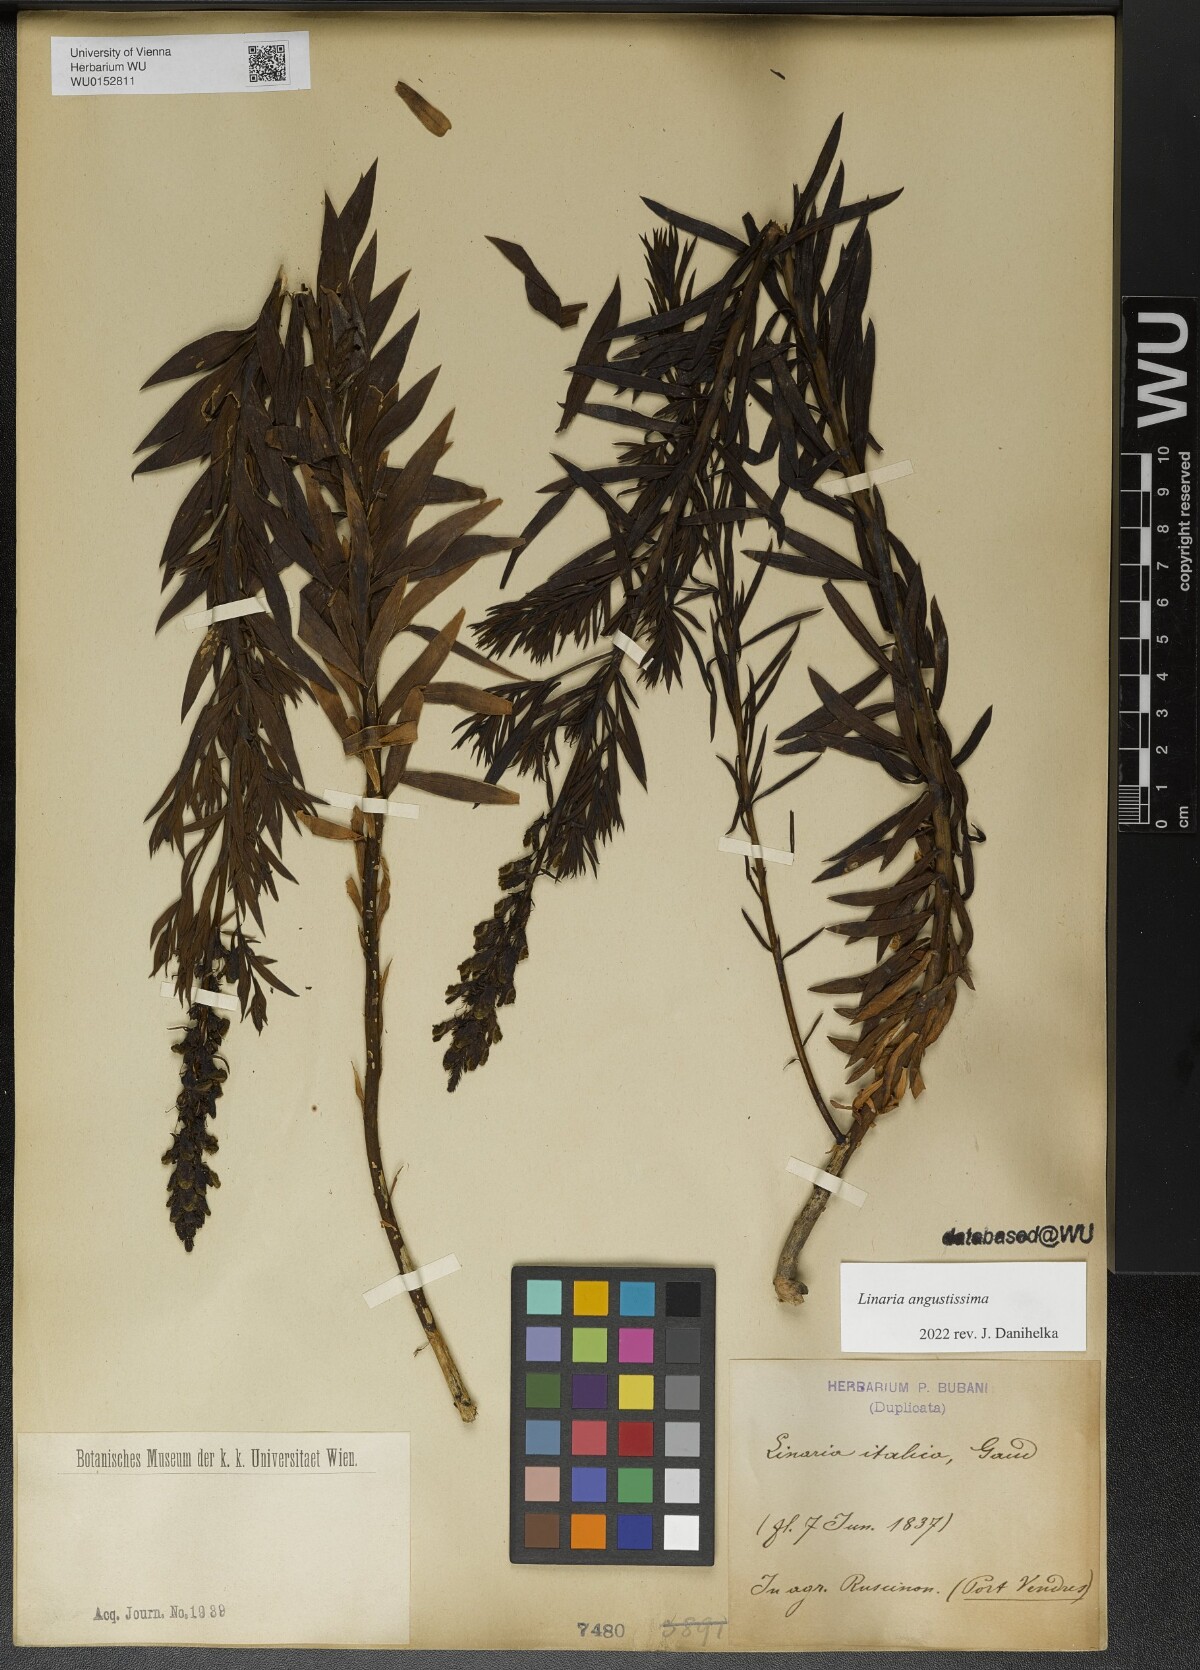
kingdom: Plantae
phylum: Tracheophyta
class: Magnoliopsida
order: Lamiales
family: Plantaginaceae
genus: Linaria
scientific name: Linaria angustissima
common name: Italian toadflax
